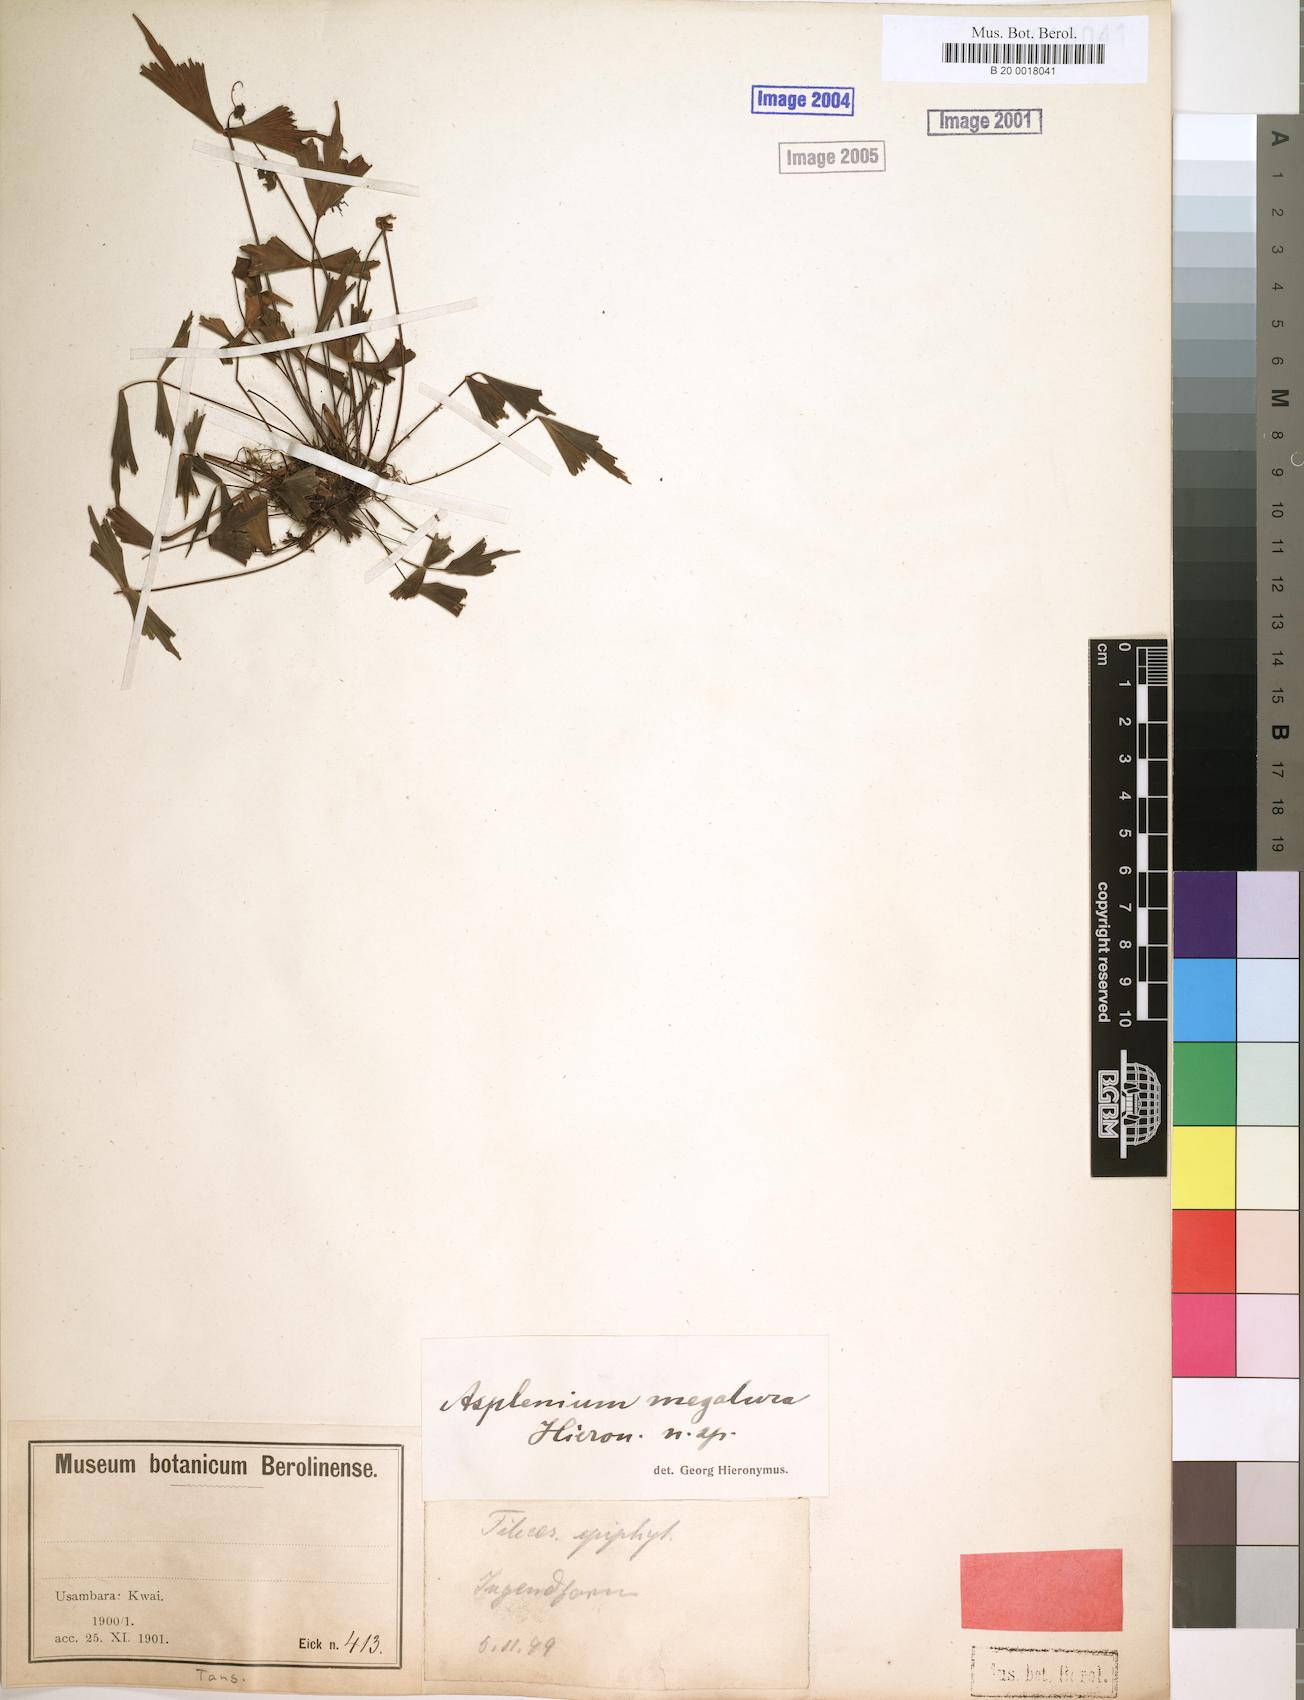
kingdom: Plantae
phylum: Tracheophyta
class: Polypodiopsida
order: Polypodiales
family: Aspleniaceae
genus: Asplenium
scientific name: Asplenium megalura
